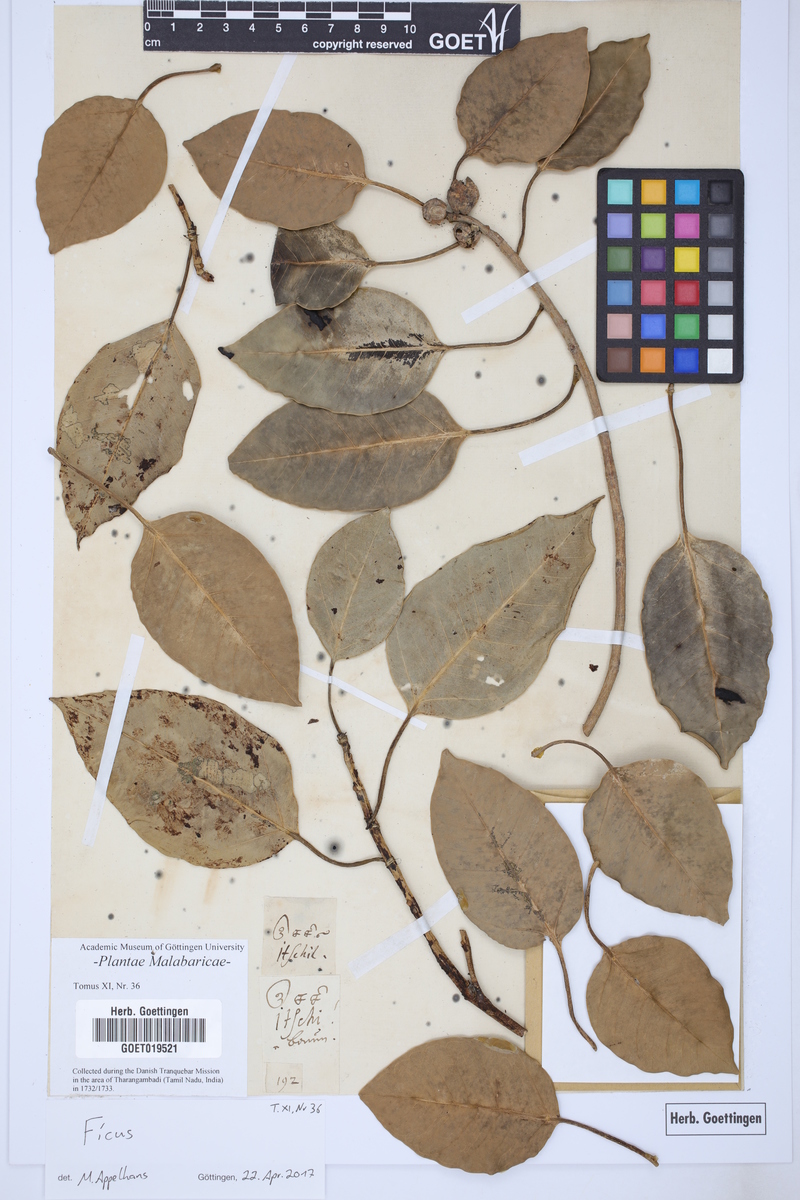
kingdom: Plantae
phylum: Tracheophyta
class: Magnoliopsida
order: Rosales
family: Moraceae
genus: Ficus
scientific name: Ficus
